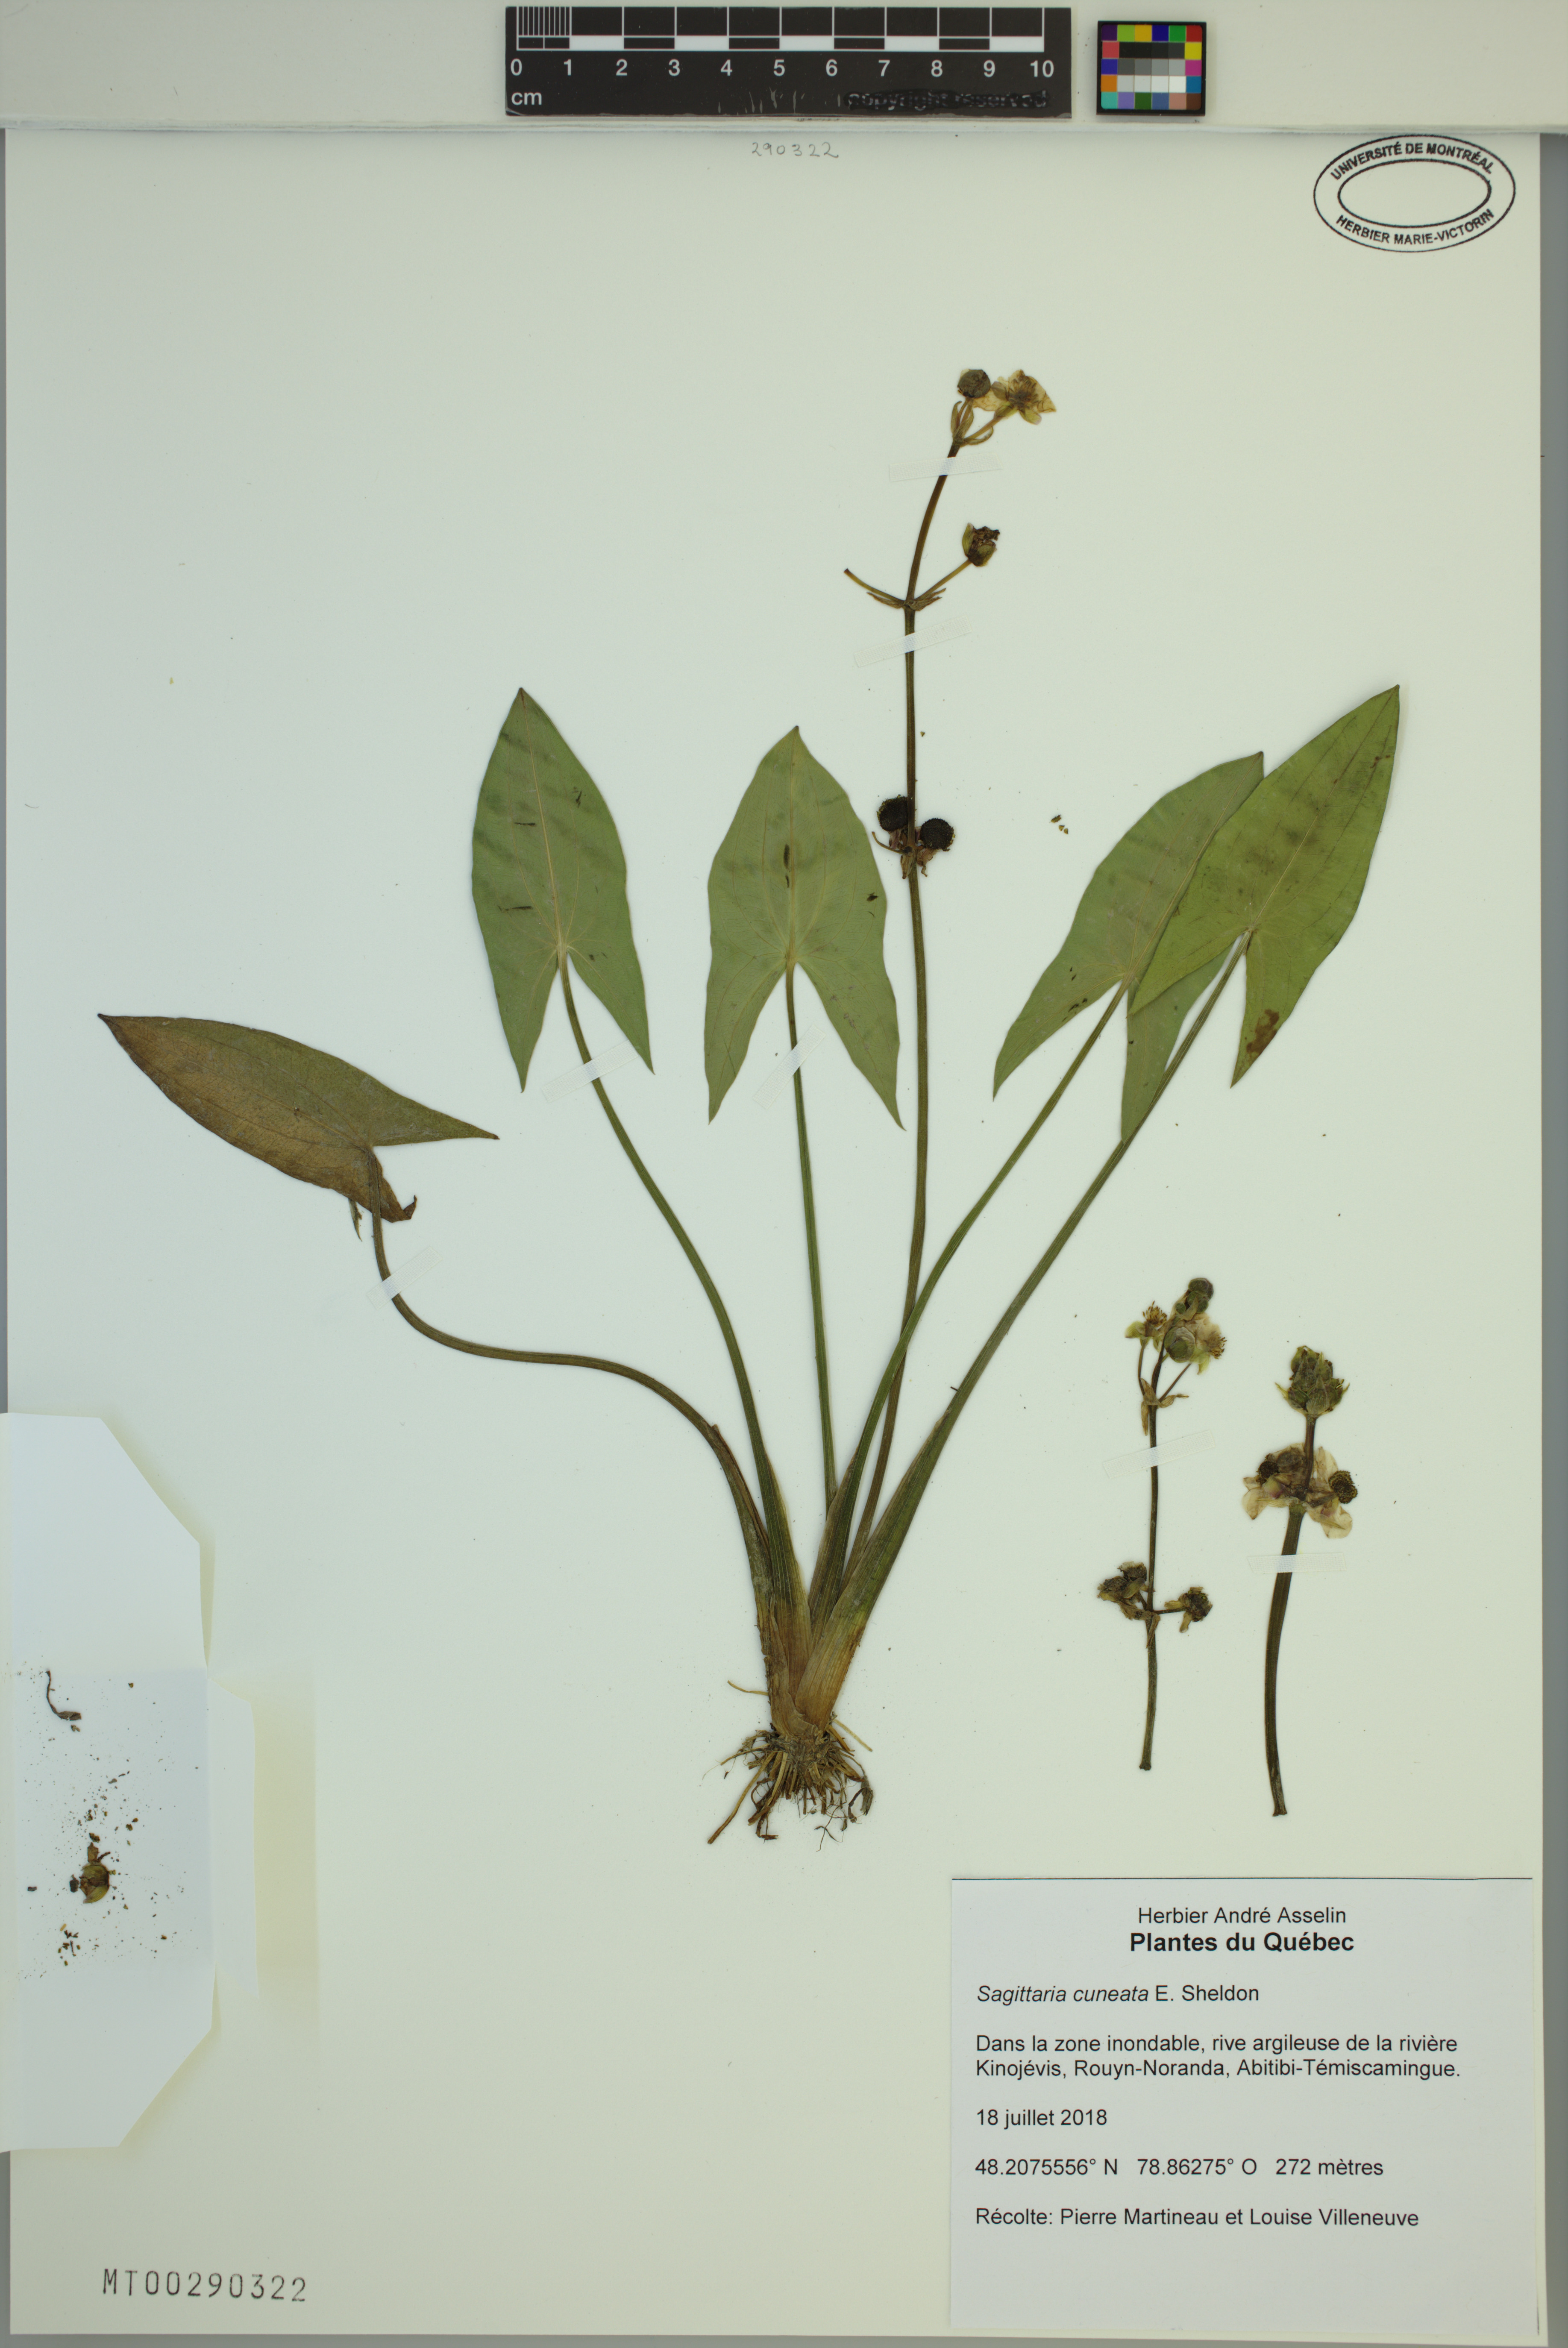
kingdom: Plantae
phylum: Tracheophyta
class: Liliopsida
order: Alismatales
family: Alismataceae
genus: Sagittaria
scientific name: Sagittaria cuneata
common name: Northern arrowhead
